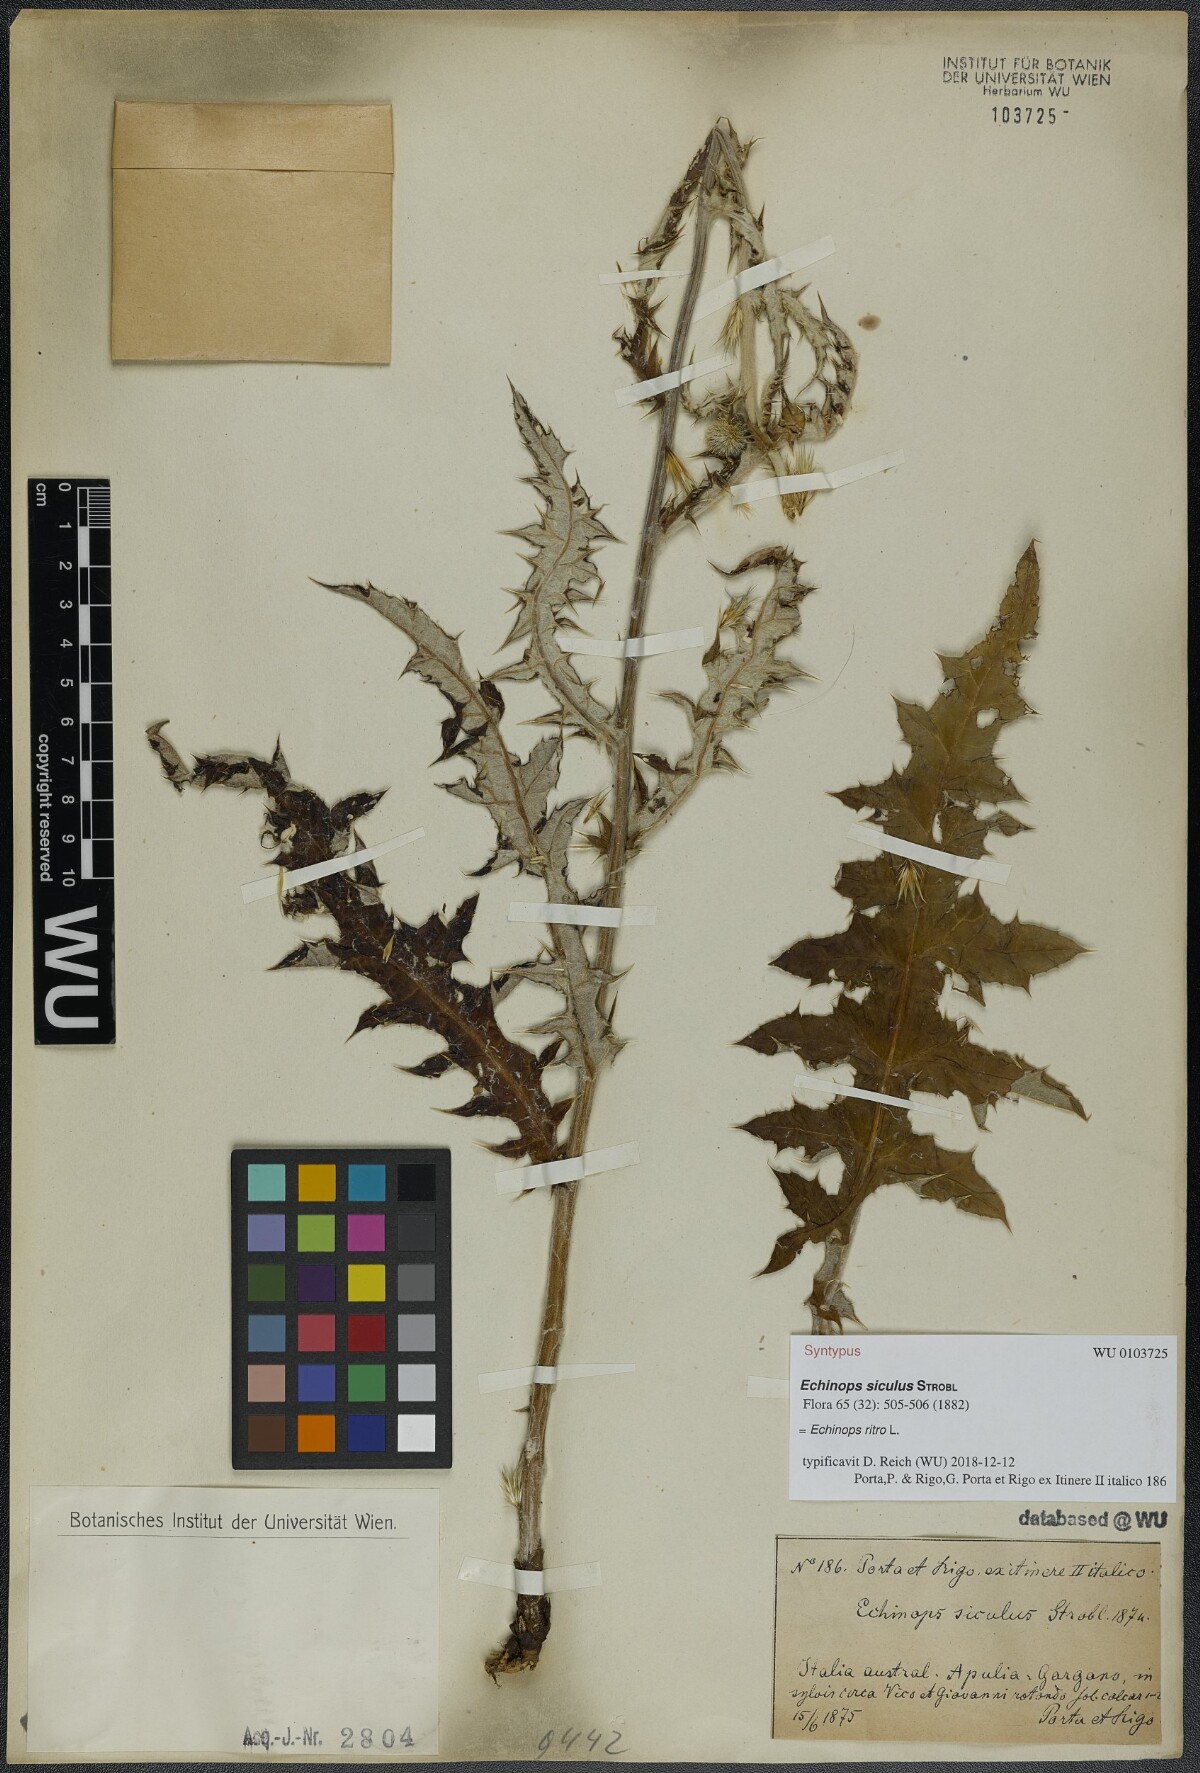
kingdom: Plantae
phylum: Tracheophyta
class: Magnoliopsida
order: Asterales
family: Asteraceae
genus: Echinops
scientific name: Echinops ritro
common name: Globe thistle
